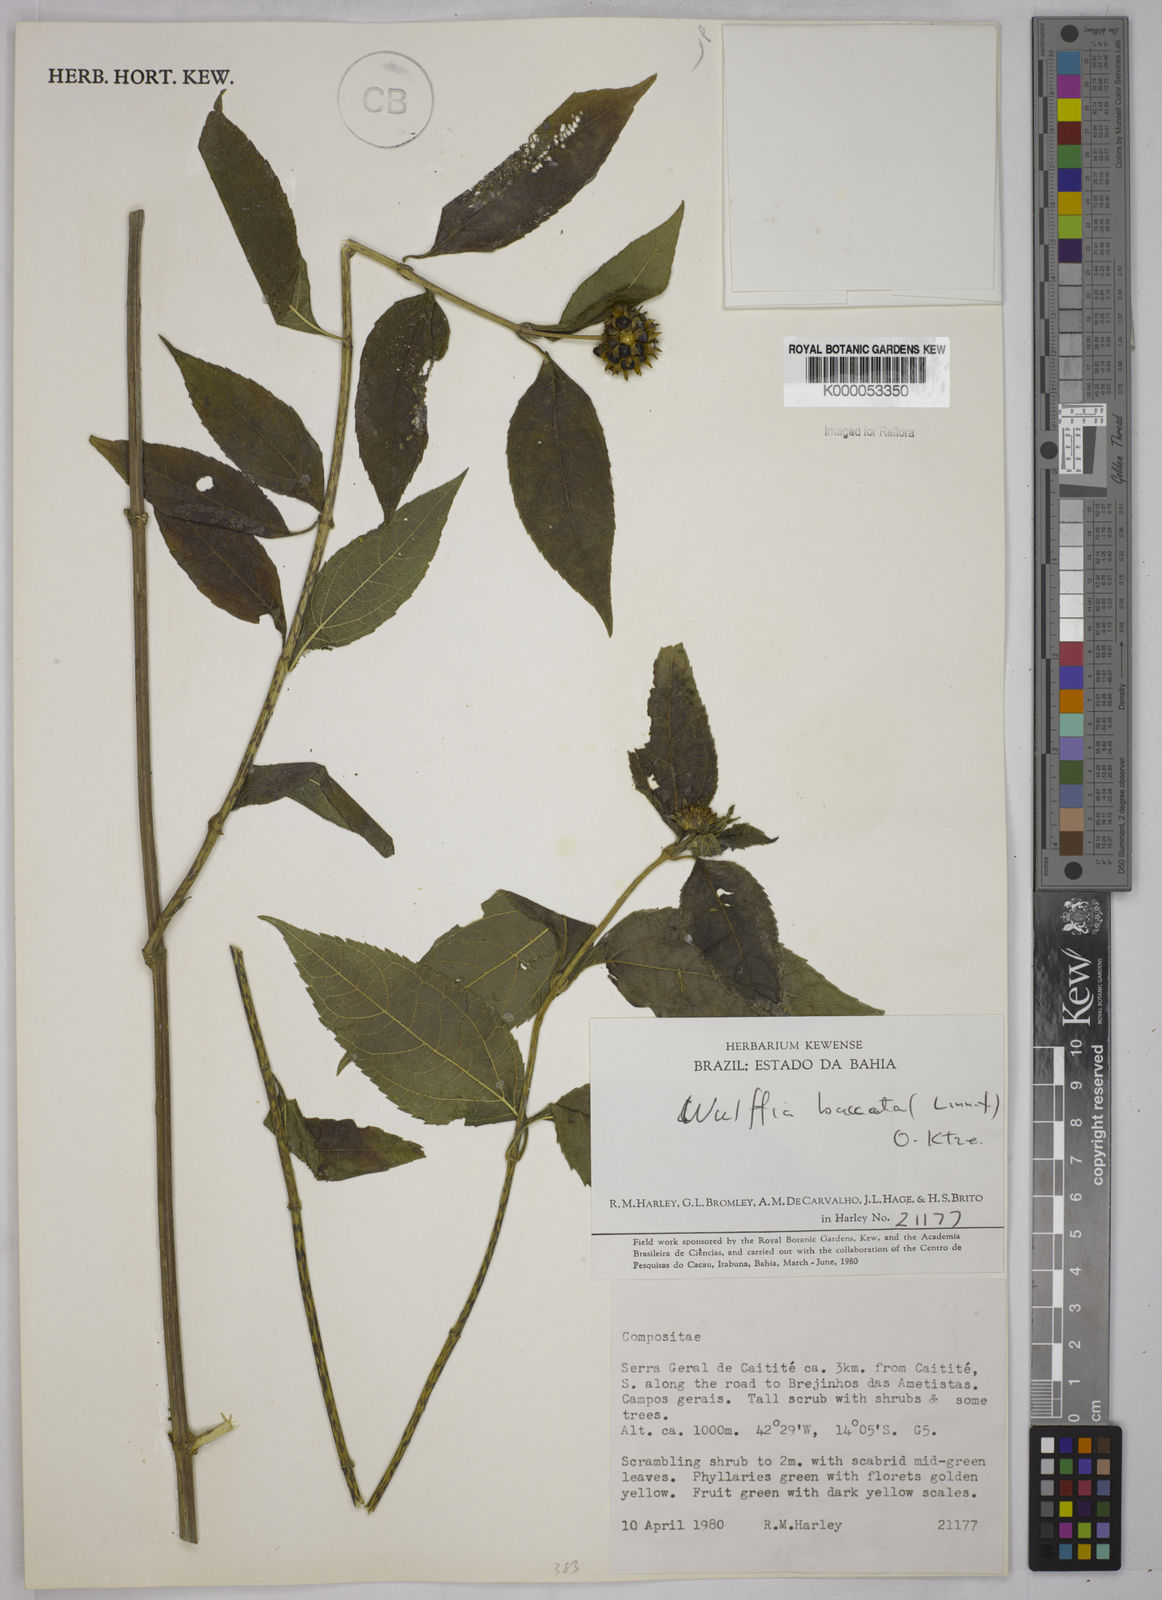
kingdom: Plantae
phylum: Tracheophyta
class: Magnoliopsida
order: Asterales
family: Asteraceae
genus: Tilesia
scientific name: Tilesia baccata
